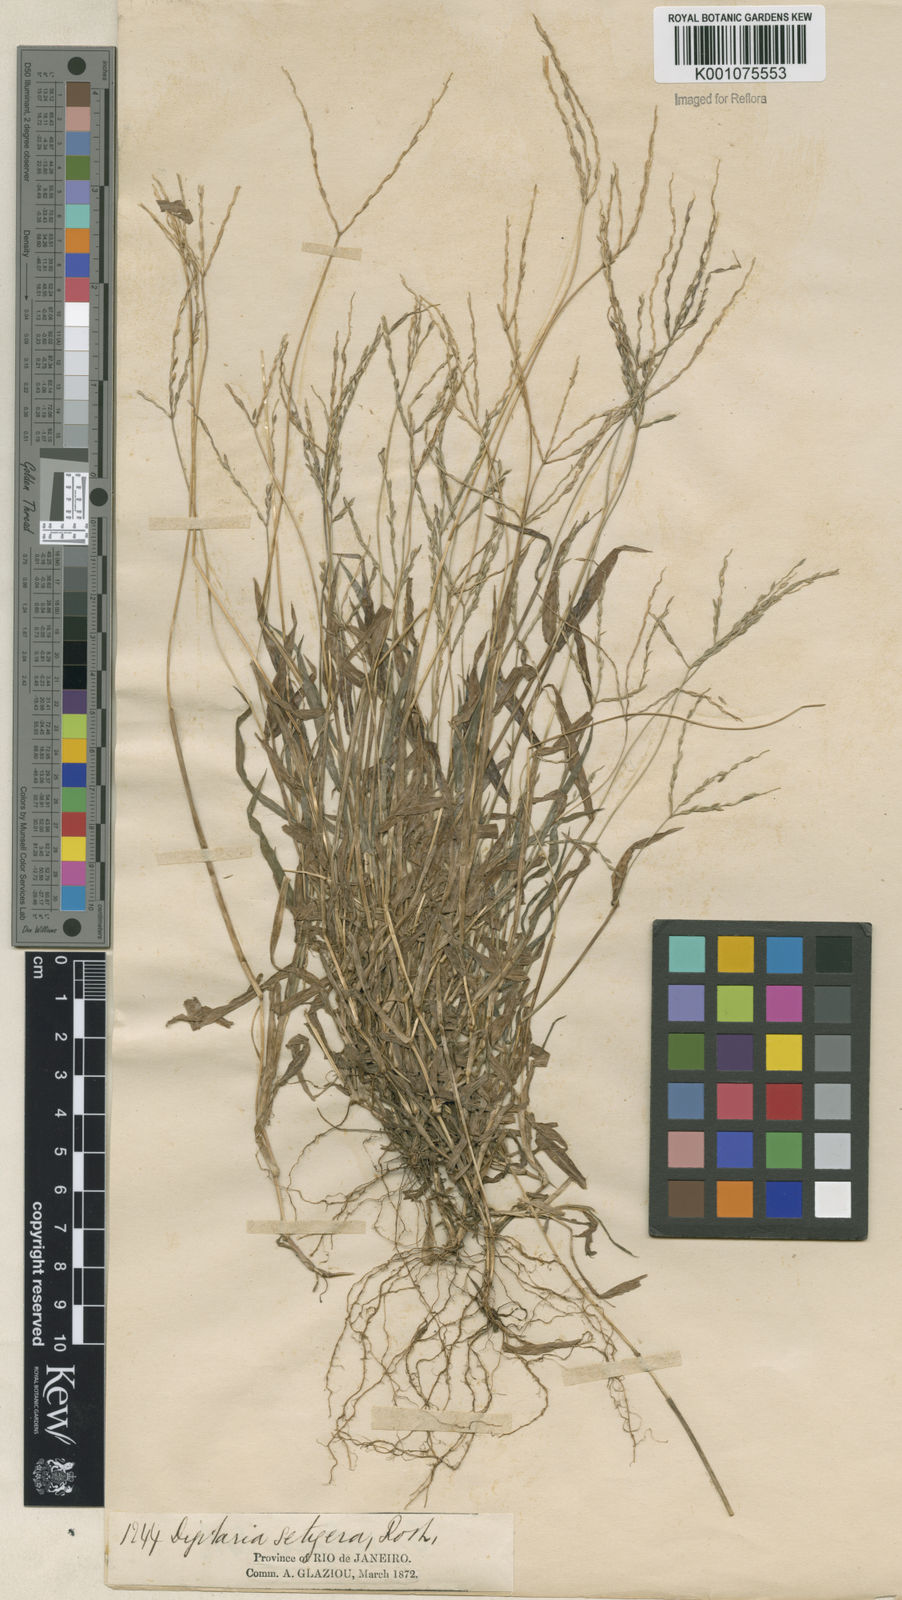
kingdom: Plantae
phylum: Tracheophyta
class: Liliopsida
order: Poales
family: Poaceae
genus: Digitaria
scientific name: Digitaria ciliaris
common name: Tropical finger-grass
